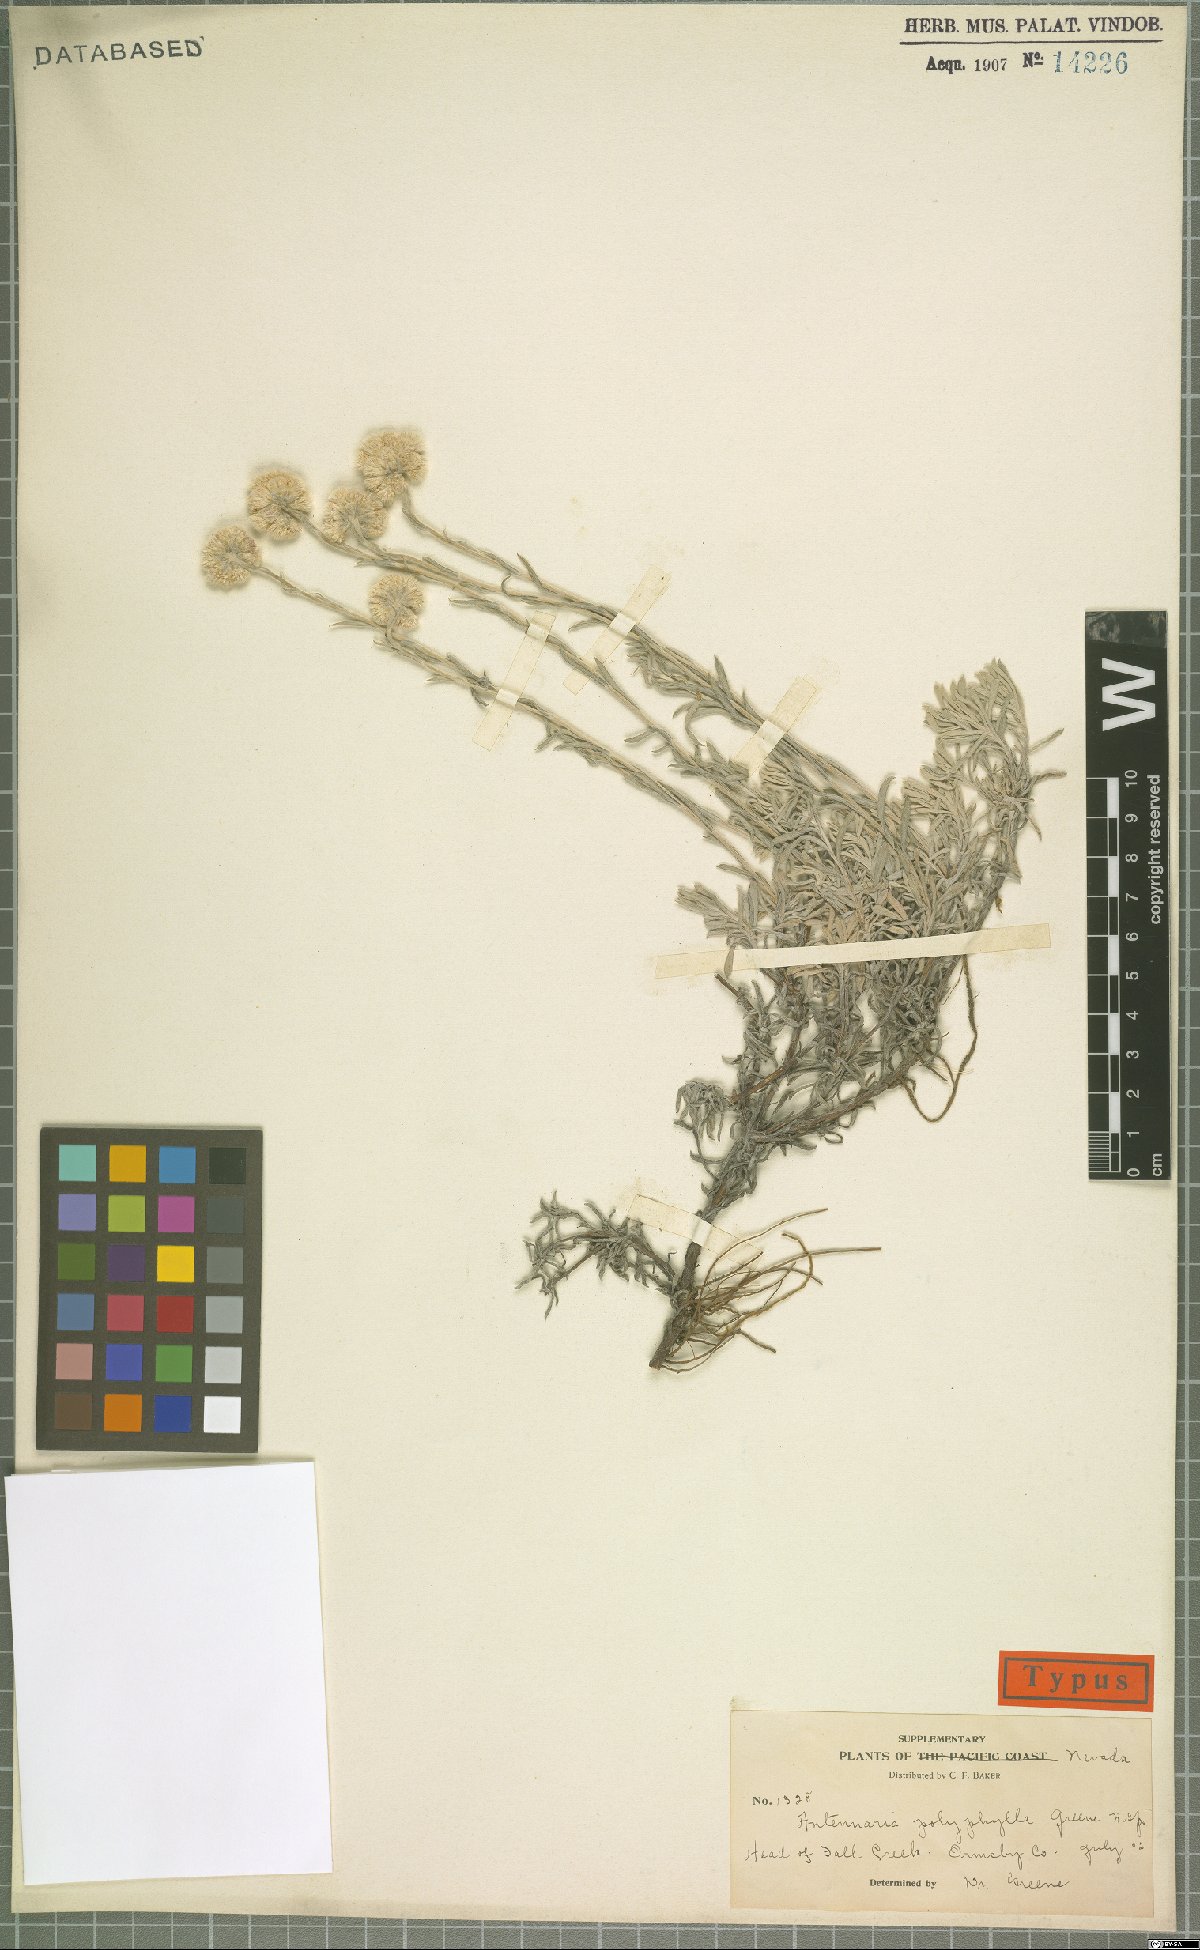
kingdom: Plantae
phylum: Tracheophyta
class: Magnoliopsida
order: Asterales
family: Asteraceae
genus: Antennaria
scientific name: Antennaria rosea
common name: Rosy pussytoes
